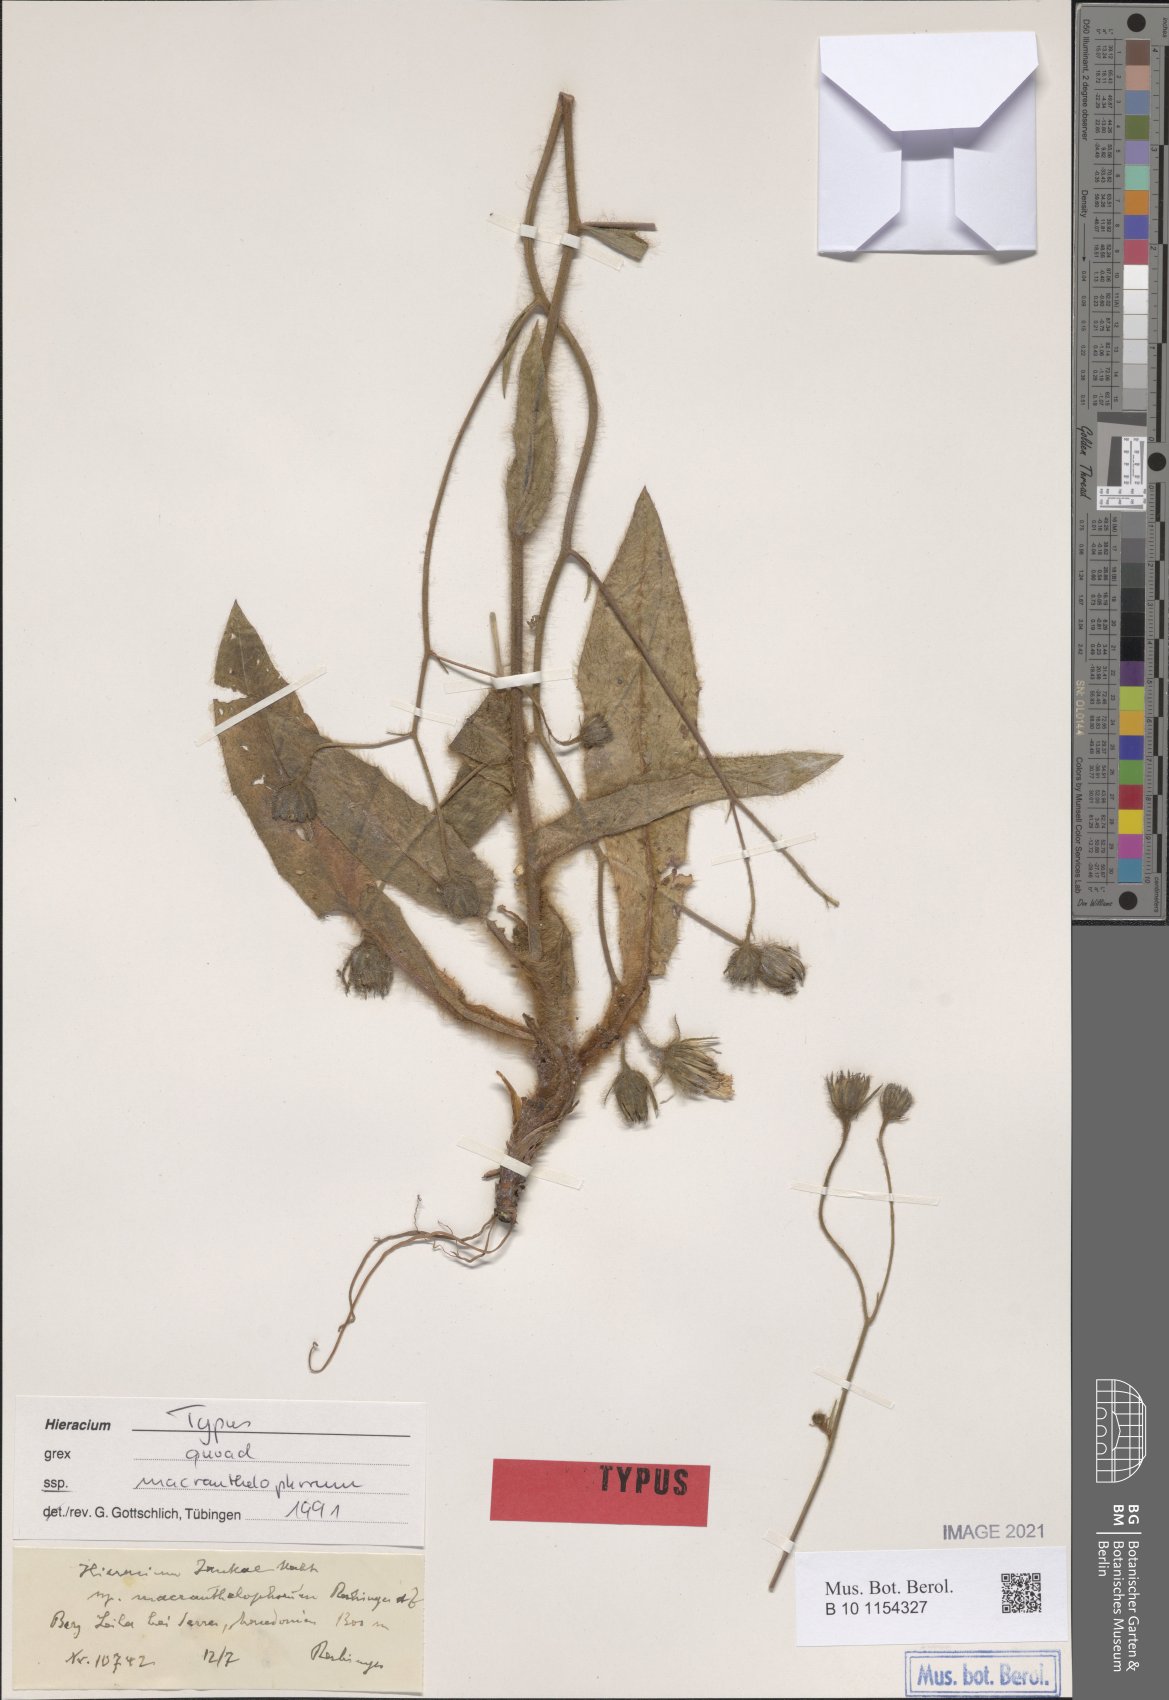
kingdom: Plantae
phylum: Tracheophyta
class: Magnoliopsida
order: Asterales
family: Asteraceae
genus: Hieracium
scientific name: Hieracium jankae
